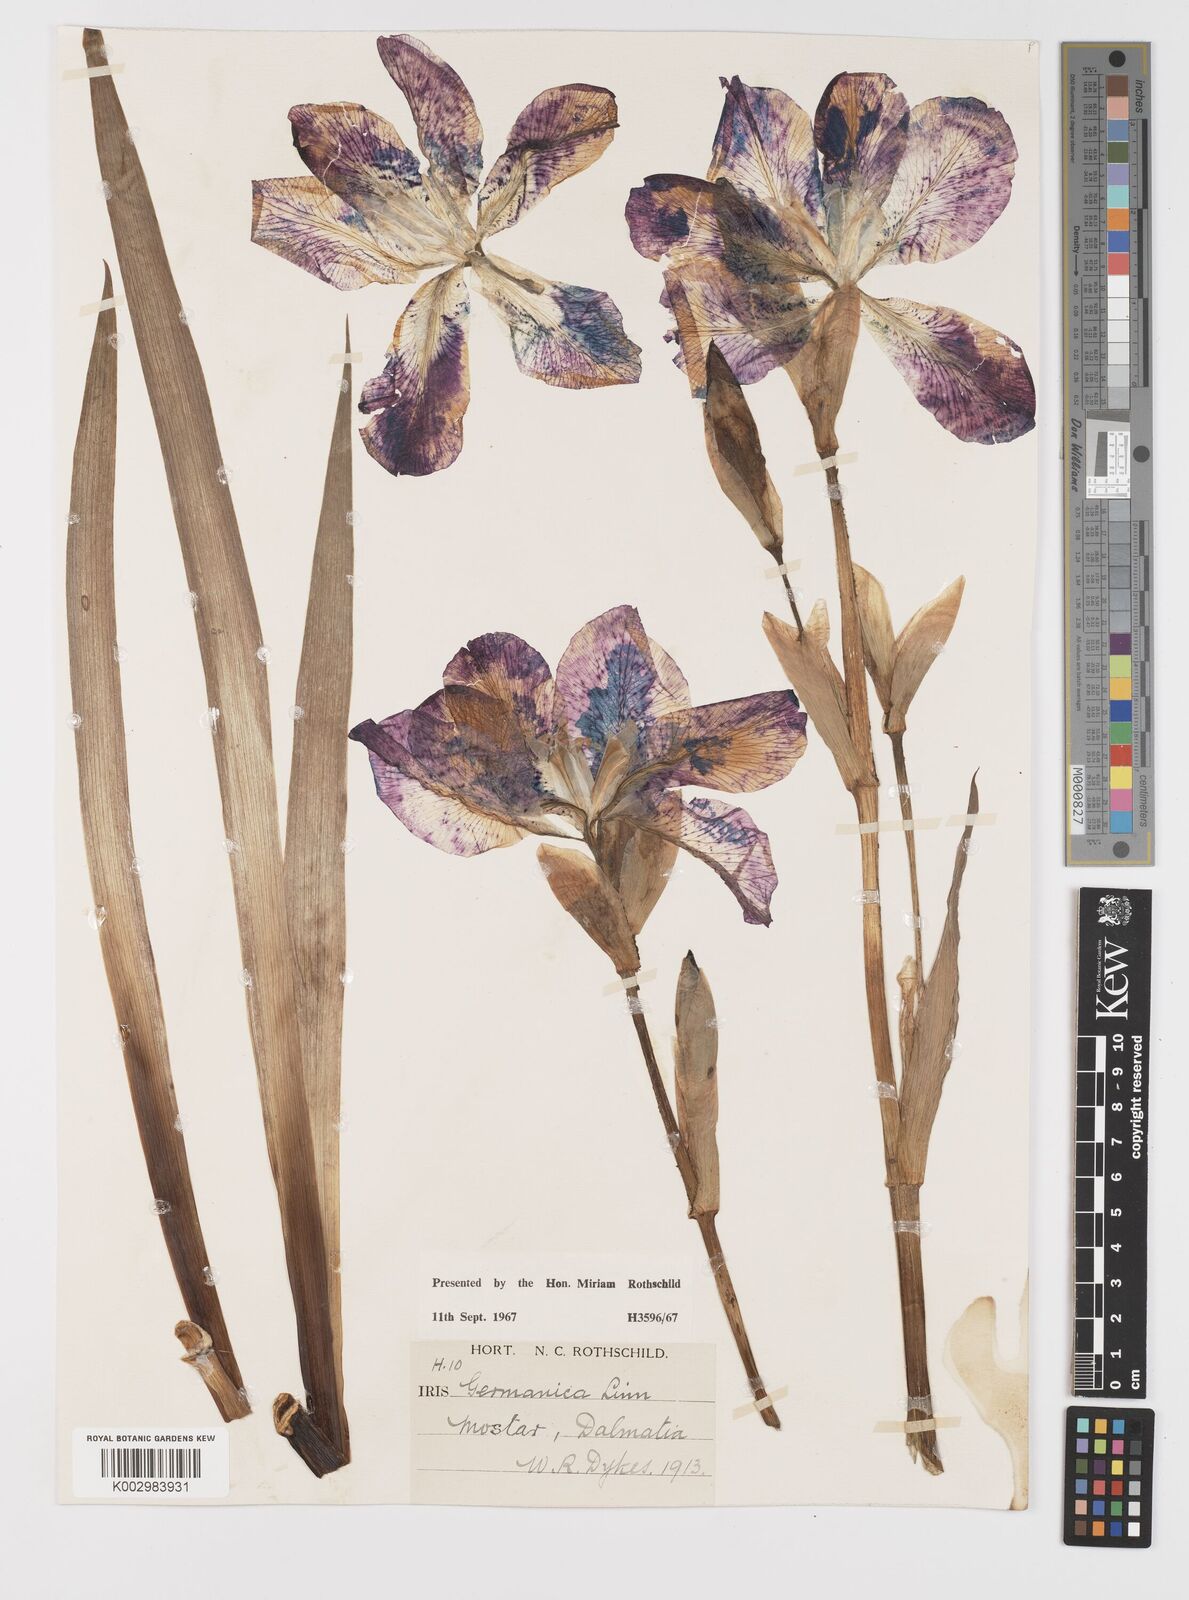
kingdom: Plantae
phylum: Tracheophyta
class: Liliopsida
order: Asparagales
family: Iridaceae
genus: Iris
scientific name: Iris germanica
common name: German iris
